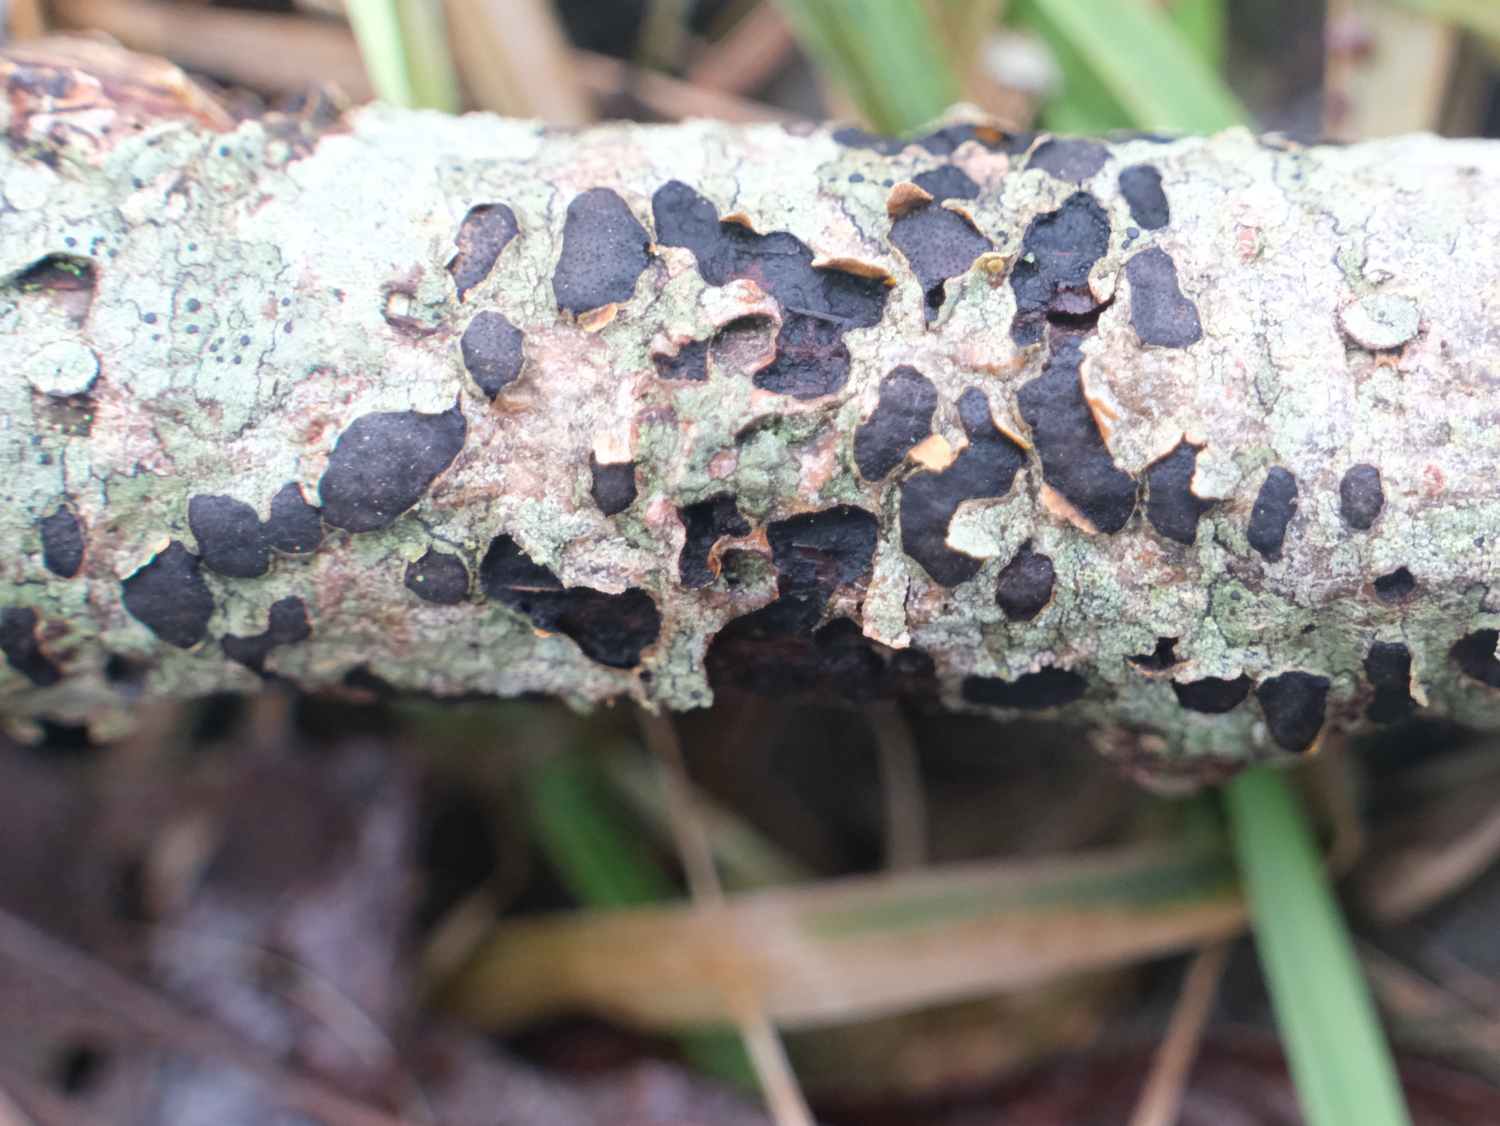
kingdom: Fungi
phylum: Ascomycota
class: Sordariomycetes
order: Xylariales
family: Diatrypaceae
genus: Diatrype
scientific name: Diatrype bullata
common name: pile-kulskorpe
